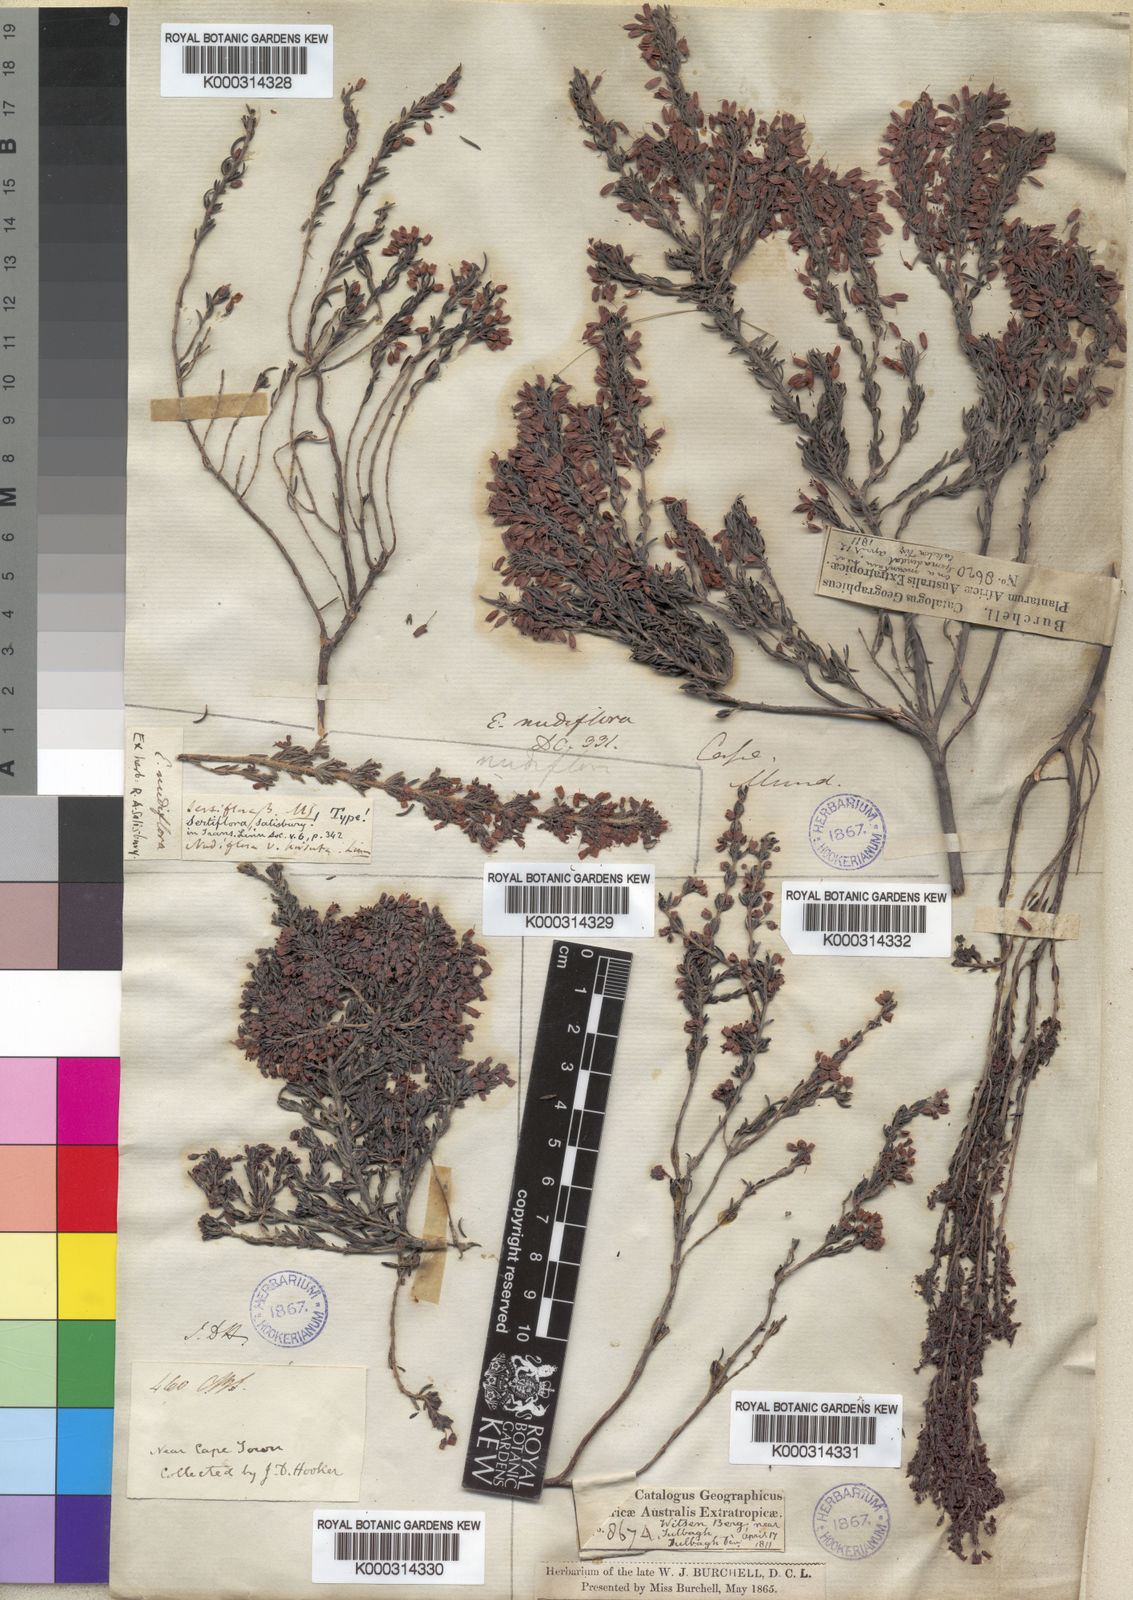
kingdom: Plantae
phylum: Tracheophyta
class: Magnoliopsida
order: Ericales
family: Ericaceae
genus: Erica
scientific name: Erica nudiflora
